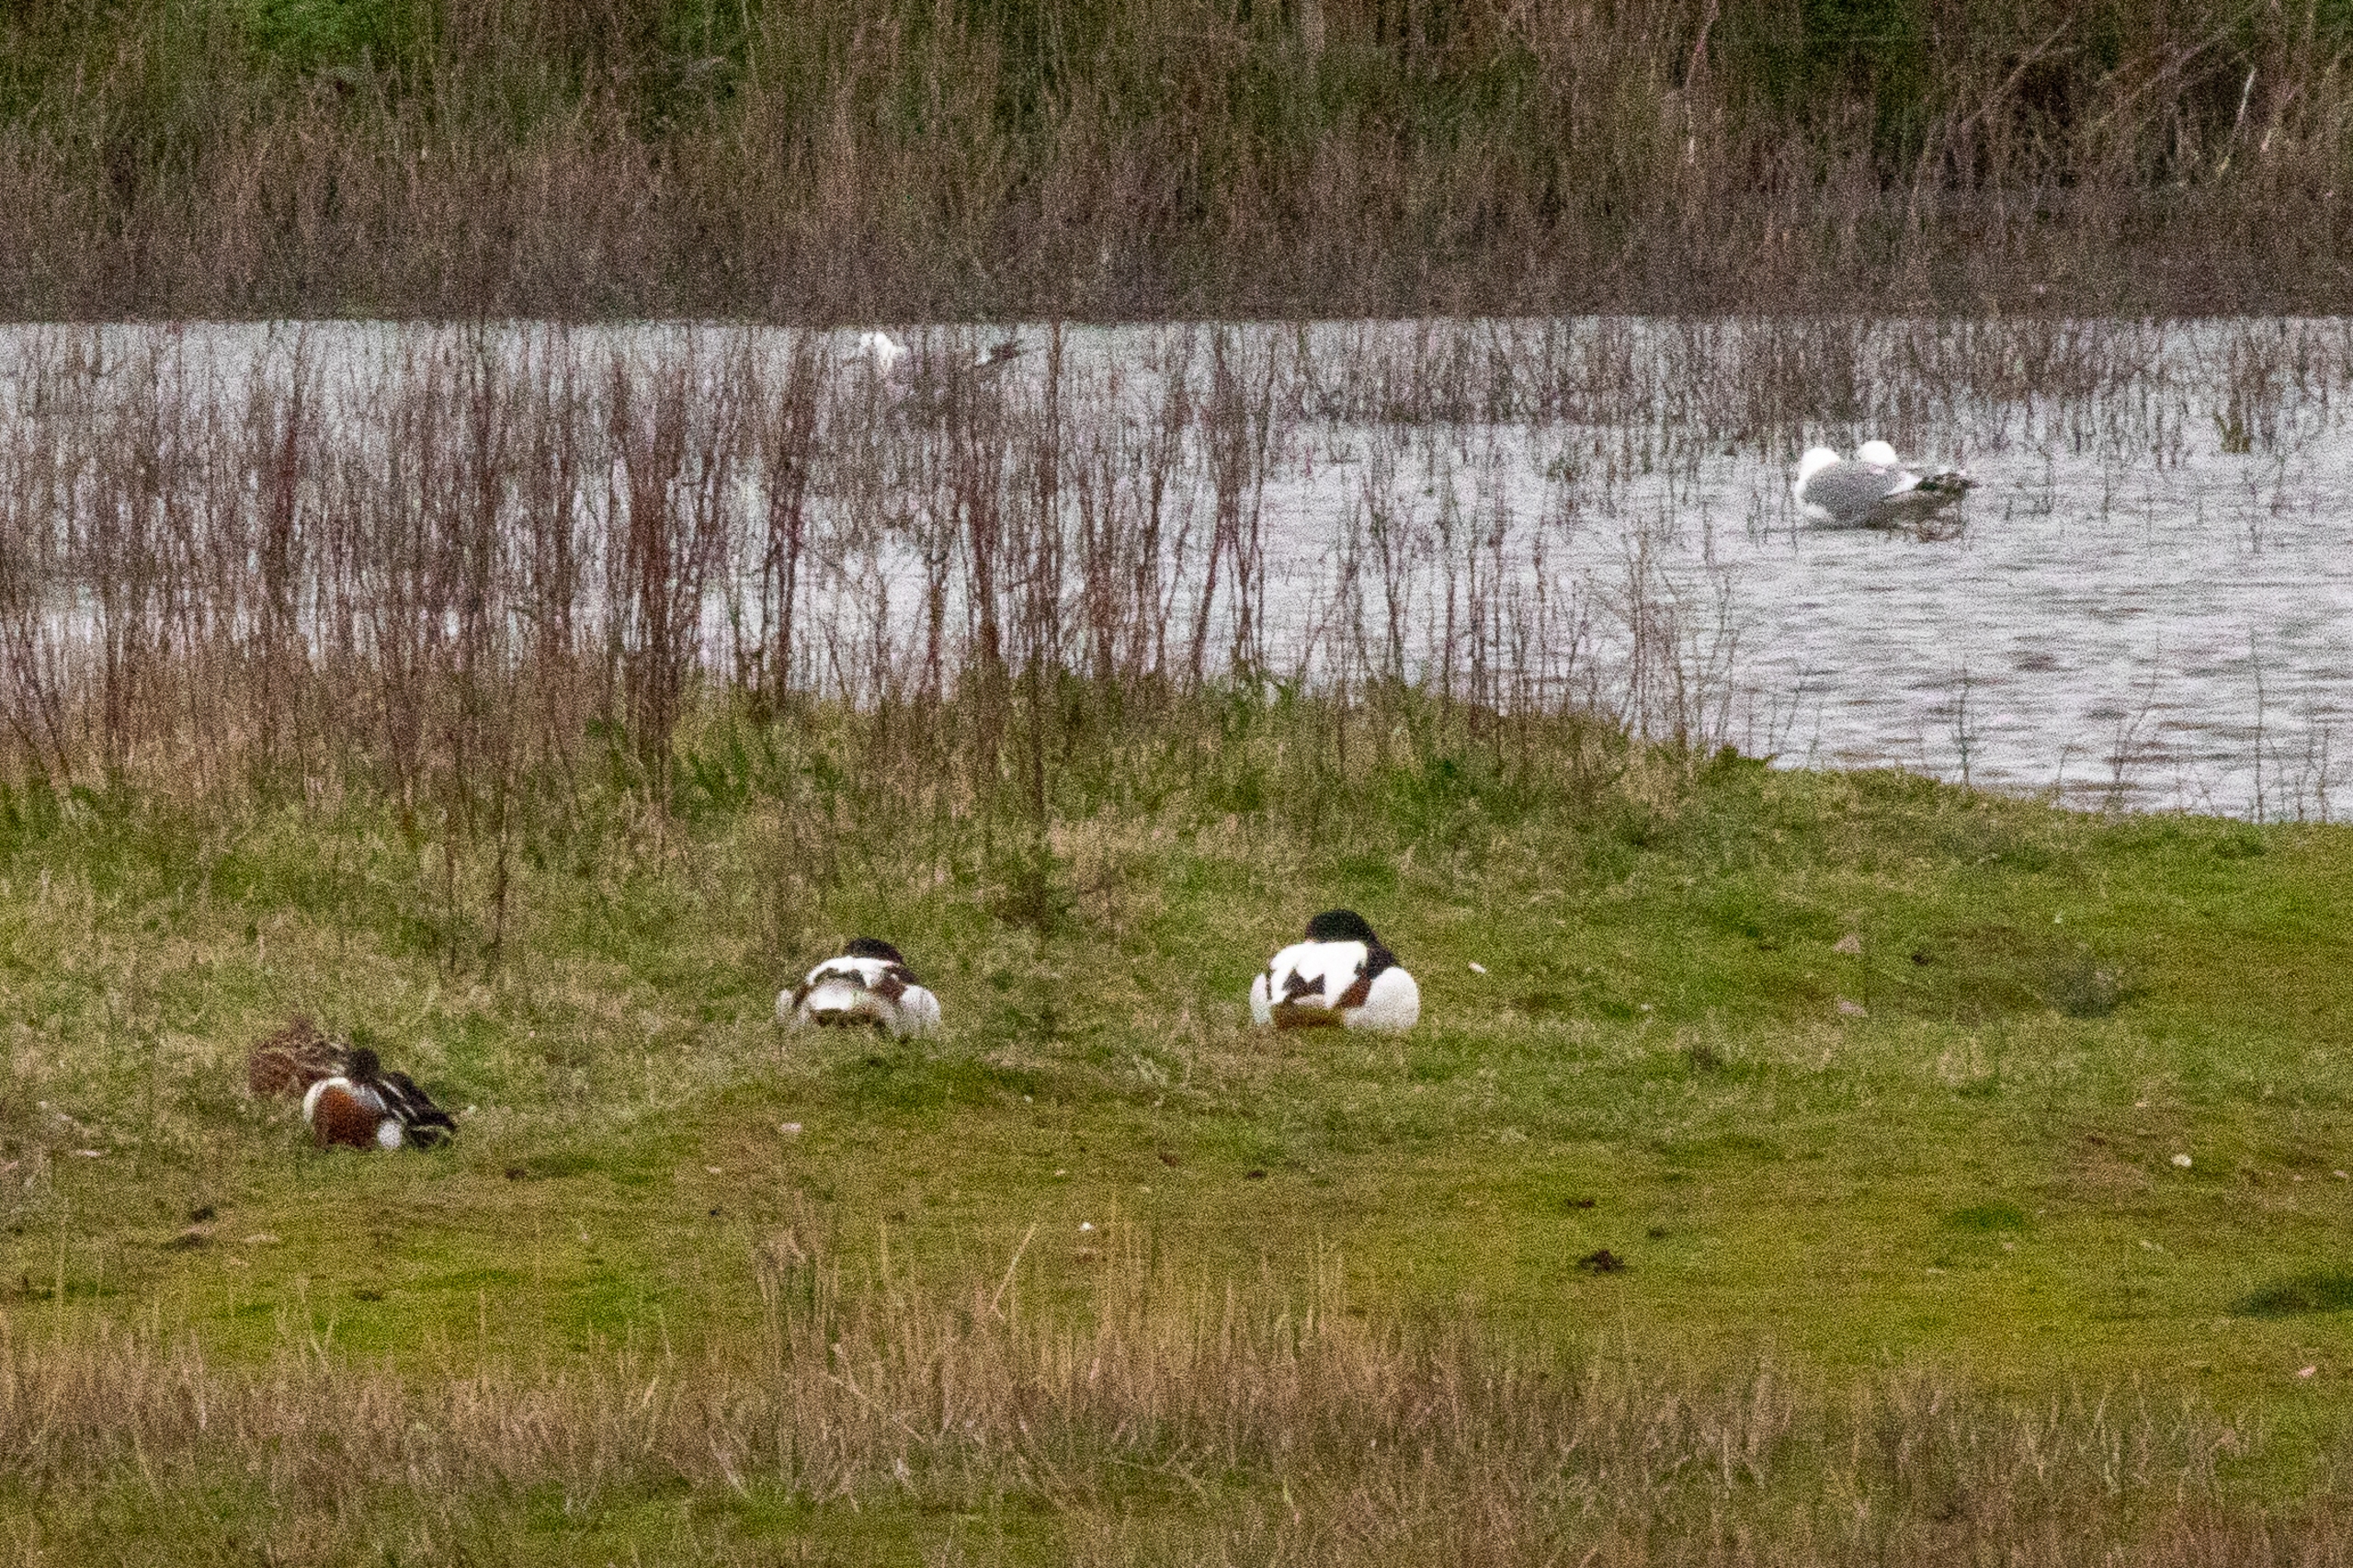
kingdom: Animalia
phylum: Chordata
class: Aves
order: Anseriformes
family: Anatidae
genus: Tadorna
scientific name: Tadorna tadorna
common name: Gravand
